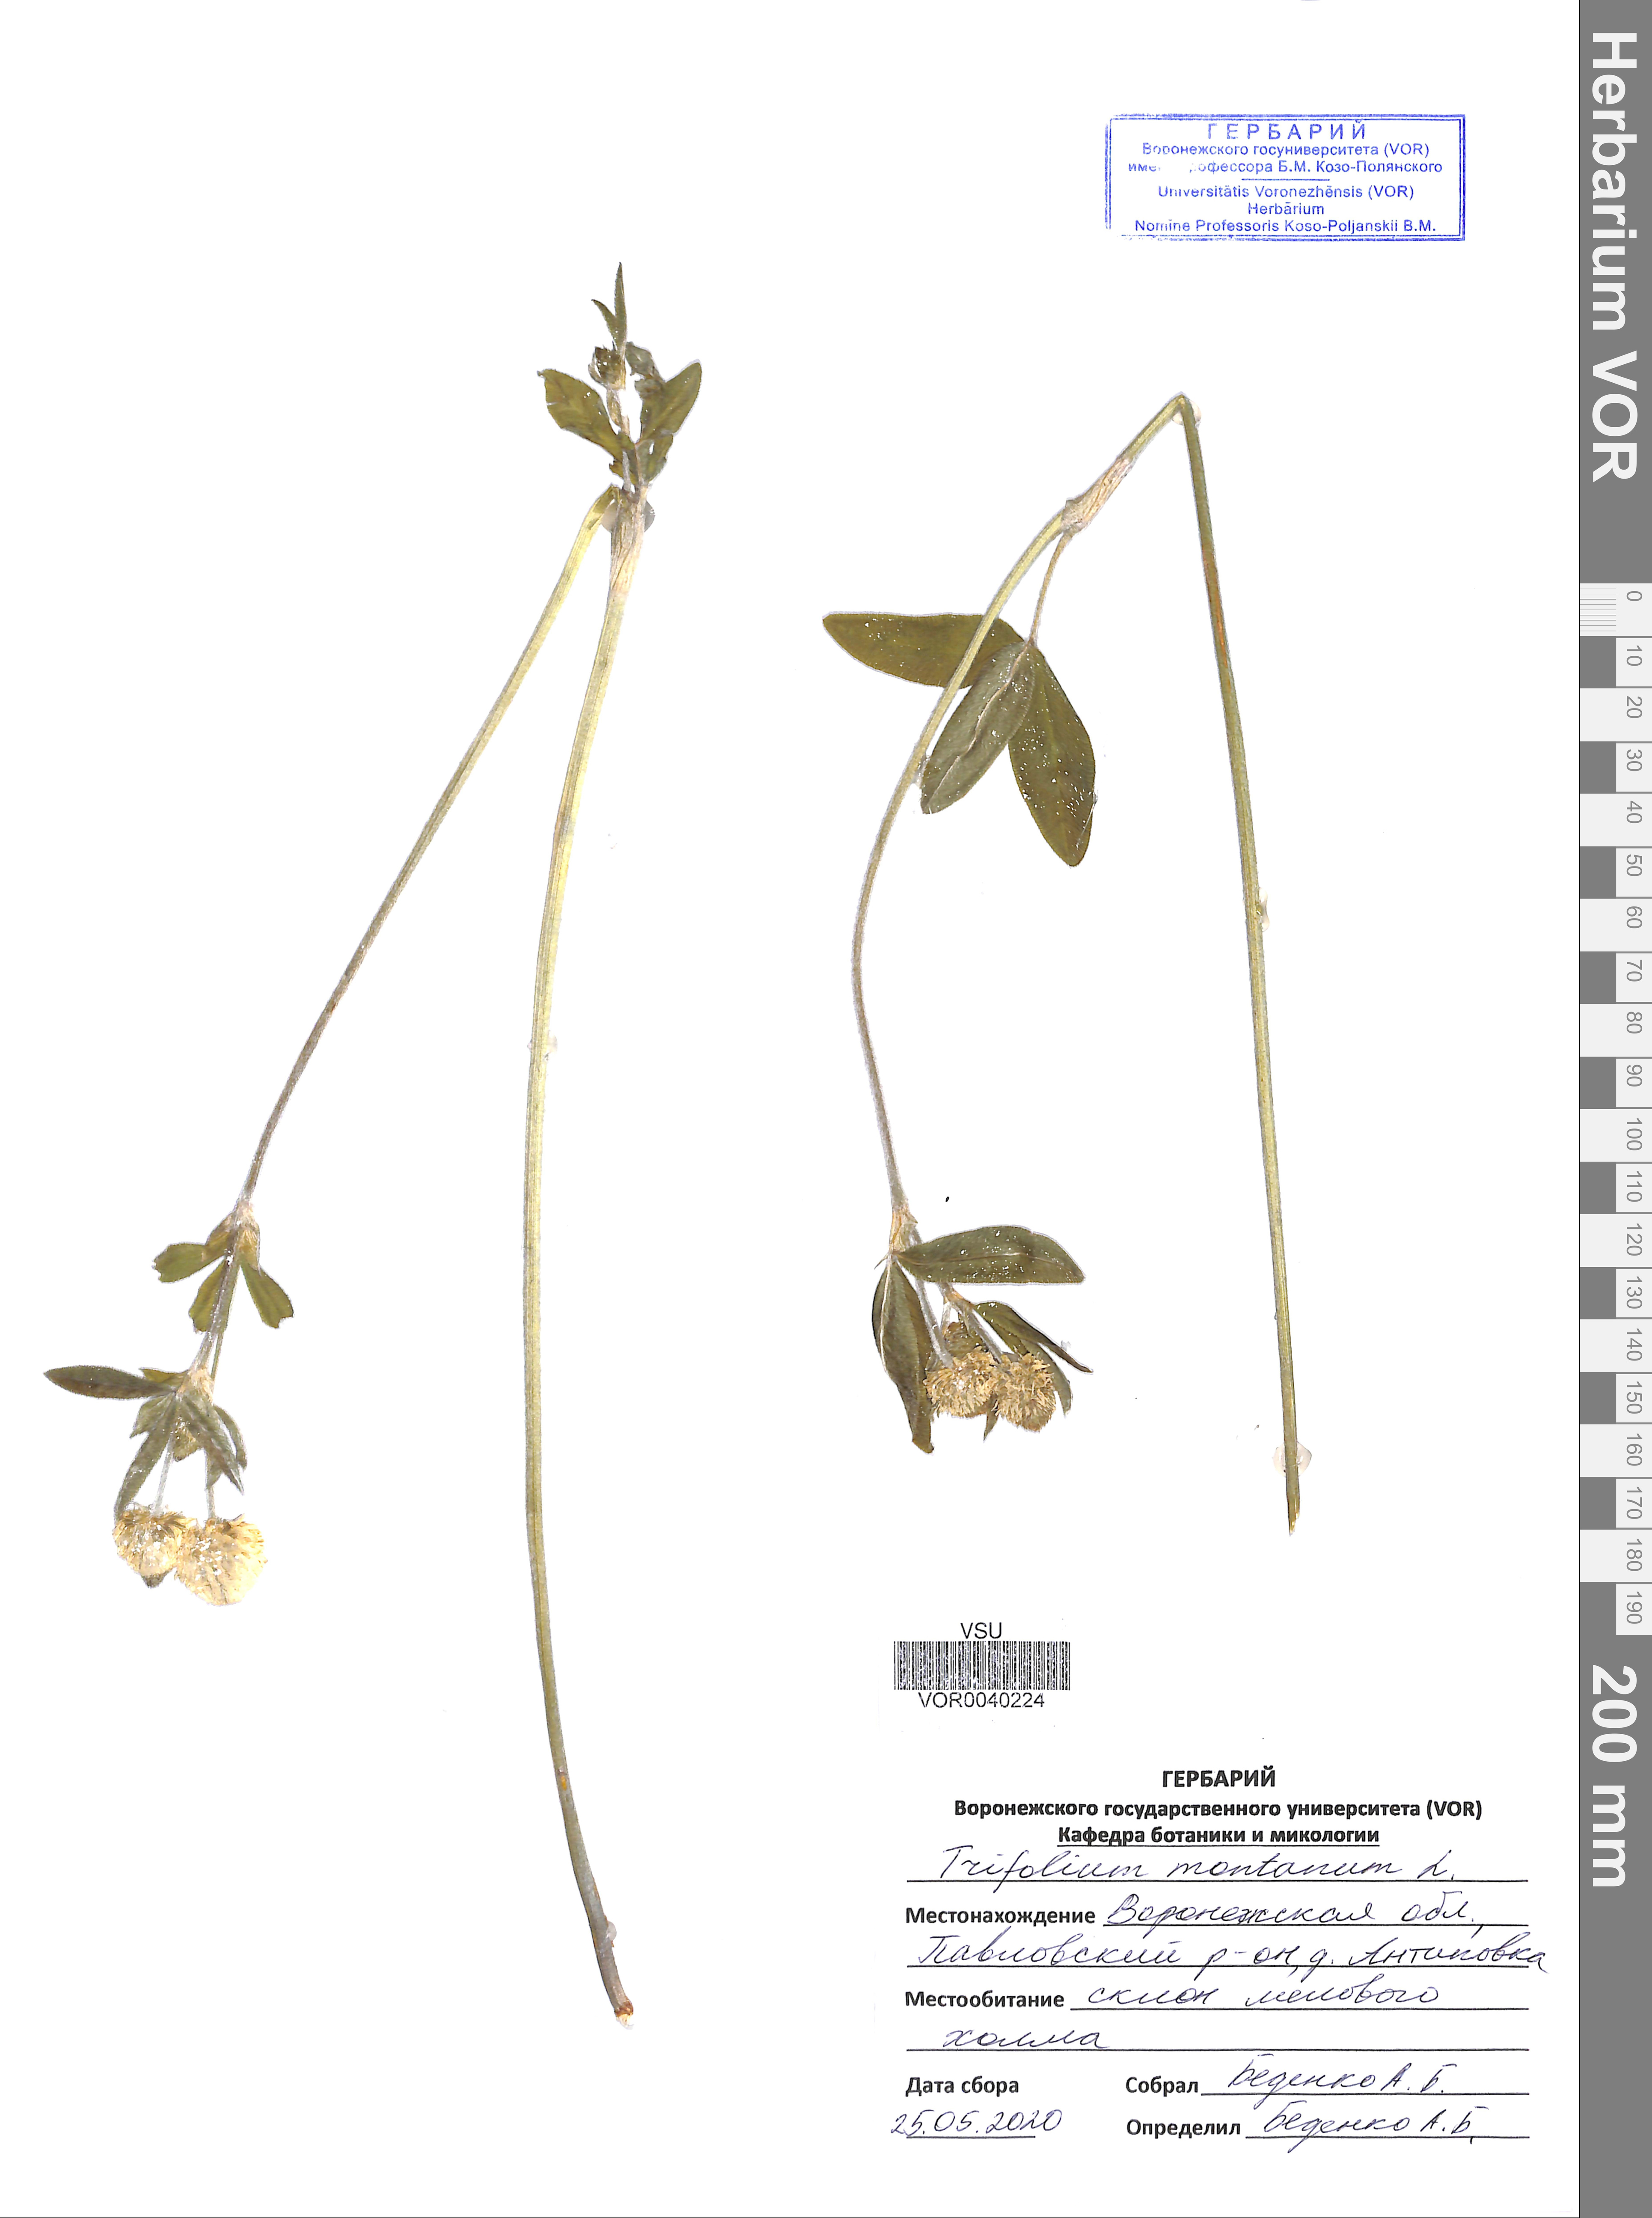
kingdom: Plantae
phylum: Tracheophyta
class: Magnoliopsida
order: Fabales
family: Fabaceae
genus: Trifolium
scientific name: Trifolium montanum
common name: Mountain clover
